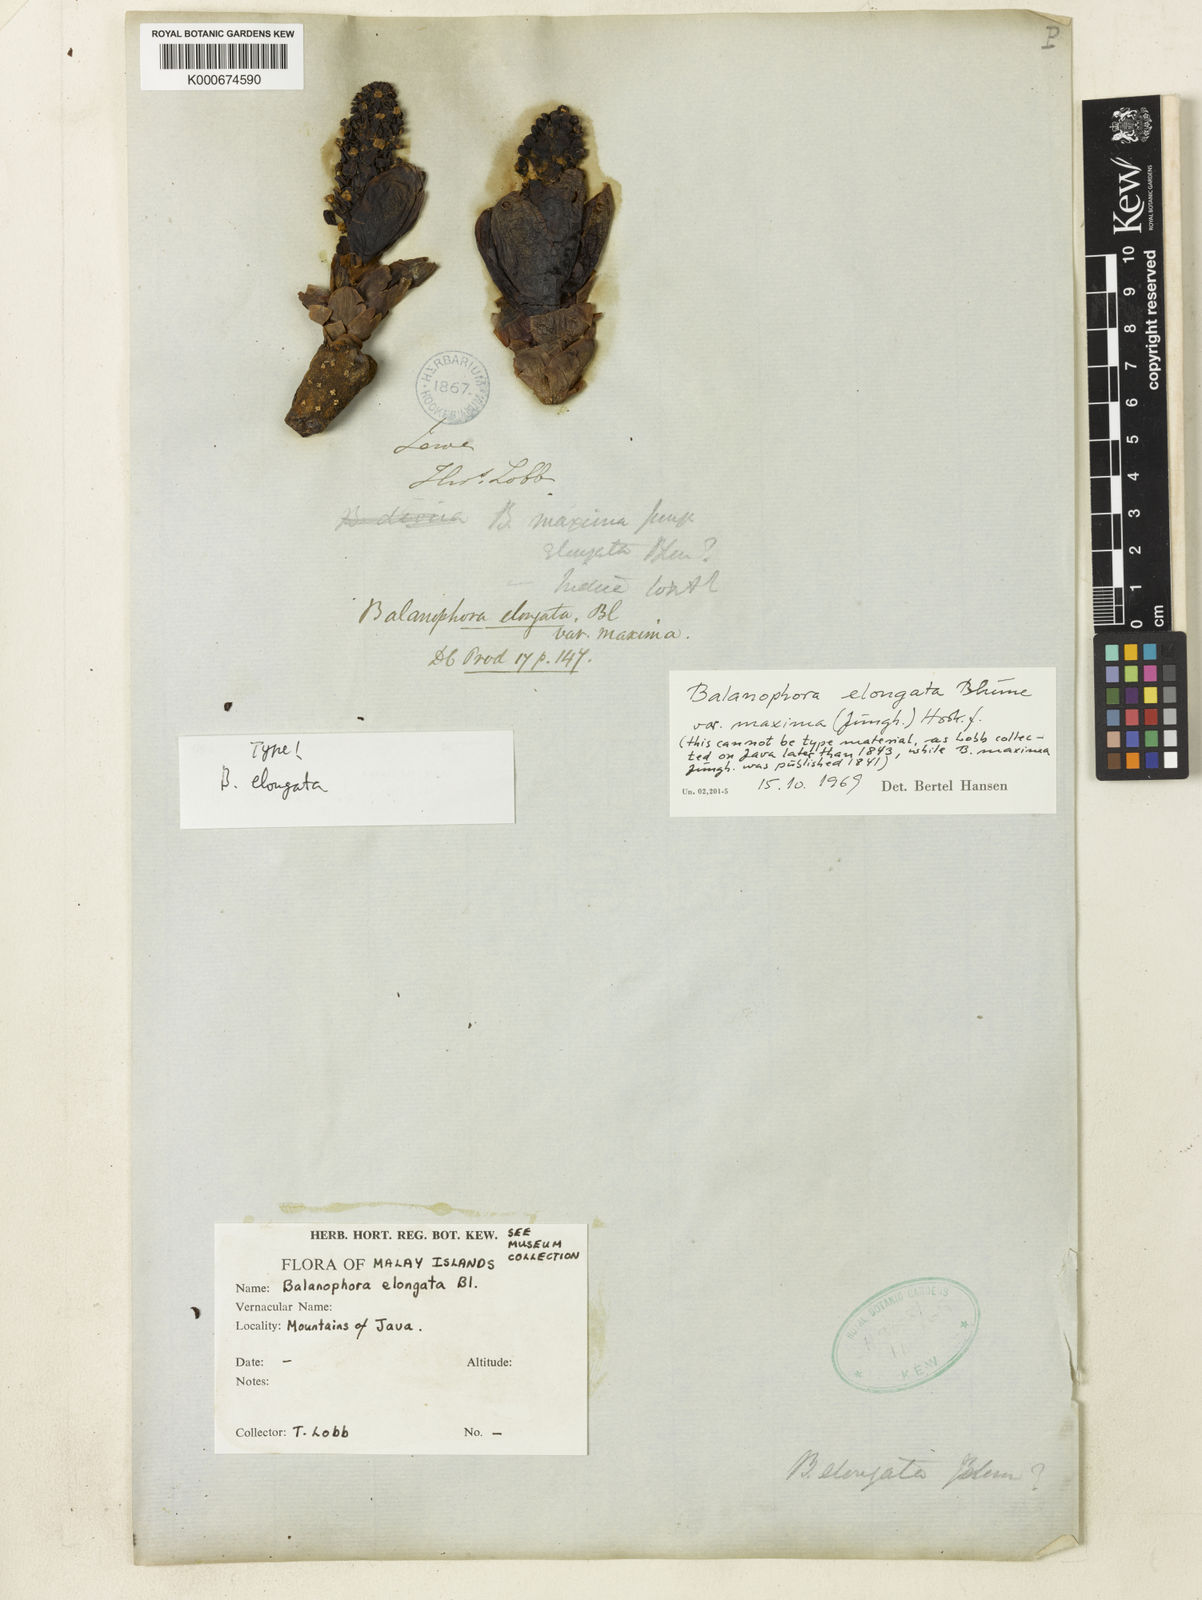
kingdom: Plantae
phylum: Tracheophyta
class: Magnoliopsida
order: Santalales
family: Balanophoraceae
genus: Balanophora
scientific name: Balanophora elongata
